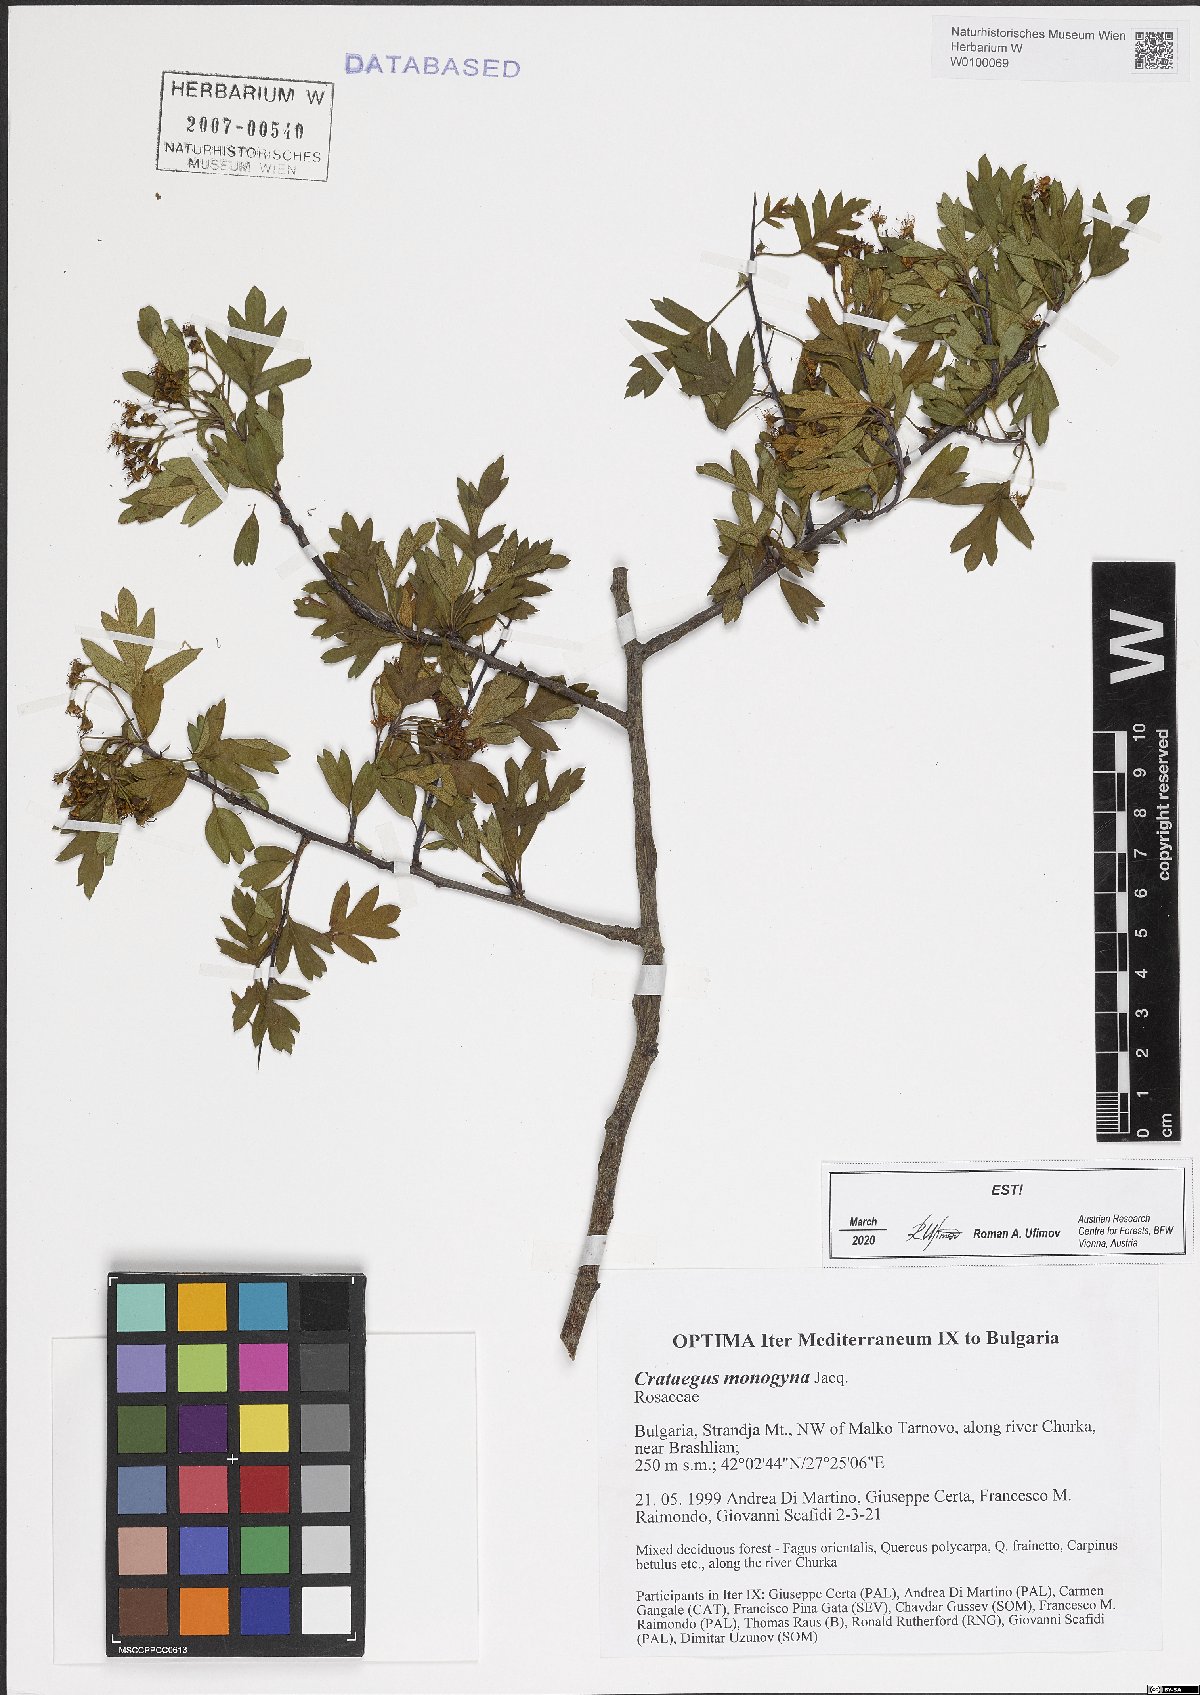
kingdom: Plantae
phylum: Tracheophyta
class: Magnoliopsida
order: Rosales
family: Rosaceae
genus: Crataegus
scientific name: Crataegus monogyna
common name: Hawthorn
